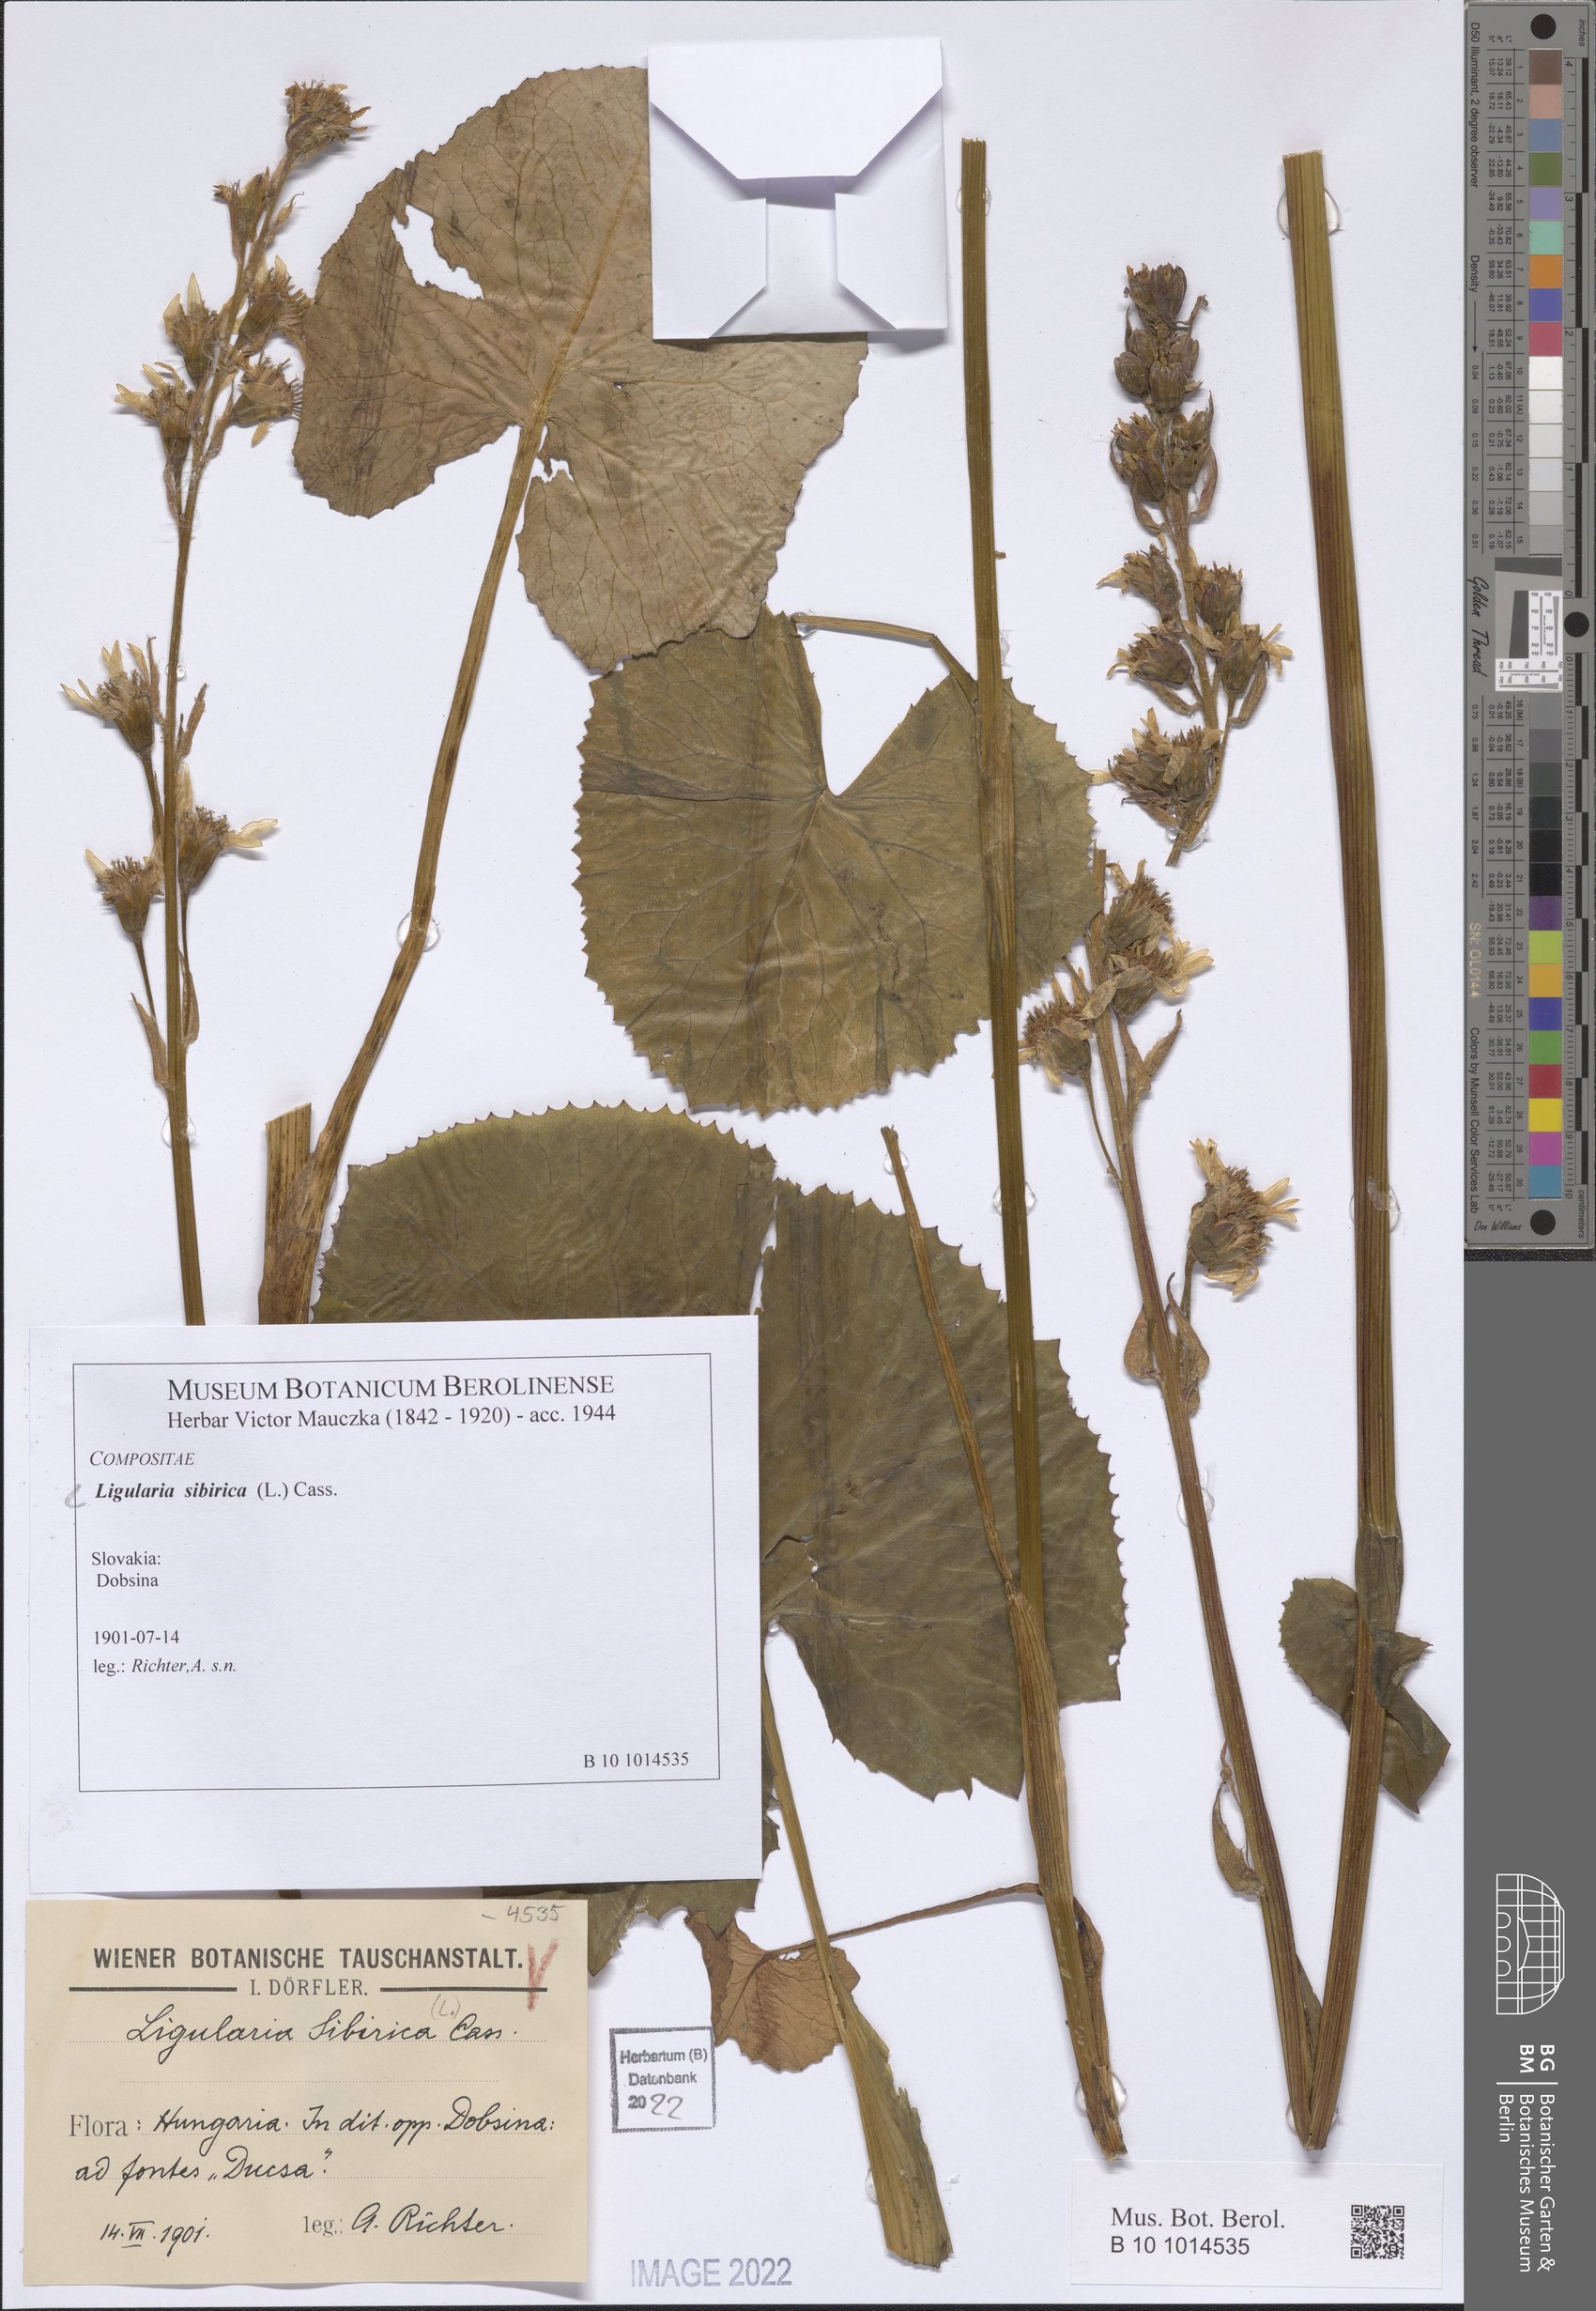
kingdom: Plantae
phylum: Tracheophyta
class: Magnoliopsida
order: Asterales
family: Asteraceae
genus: Ligularia
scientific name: Ligularia sibirica
